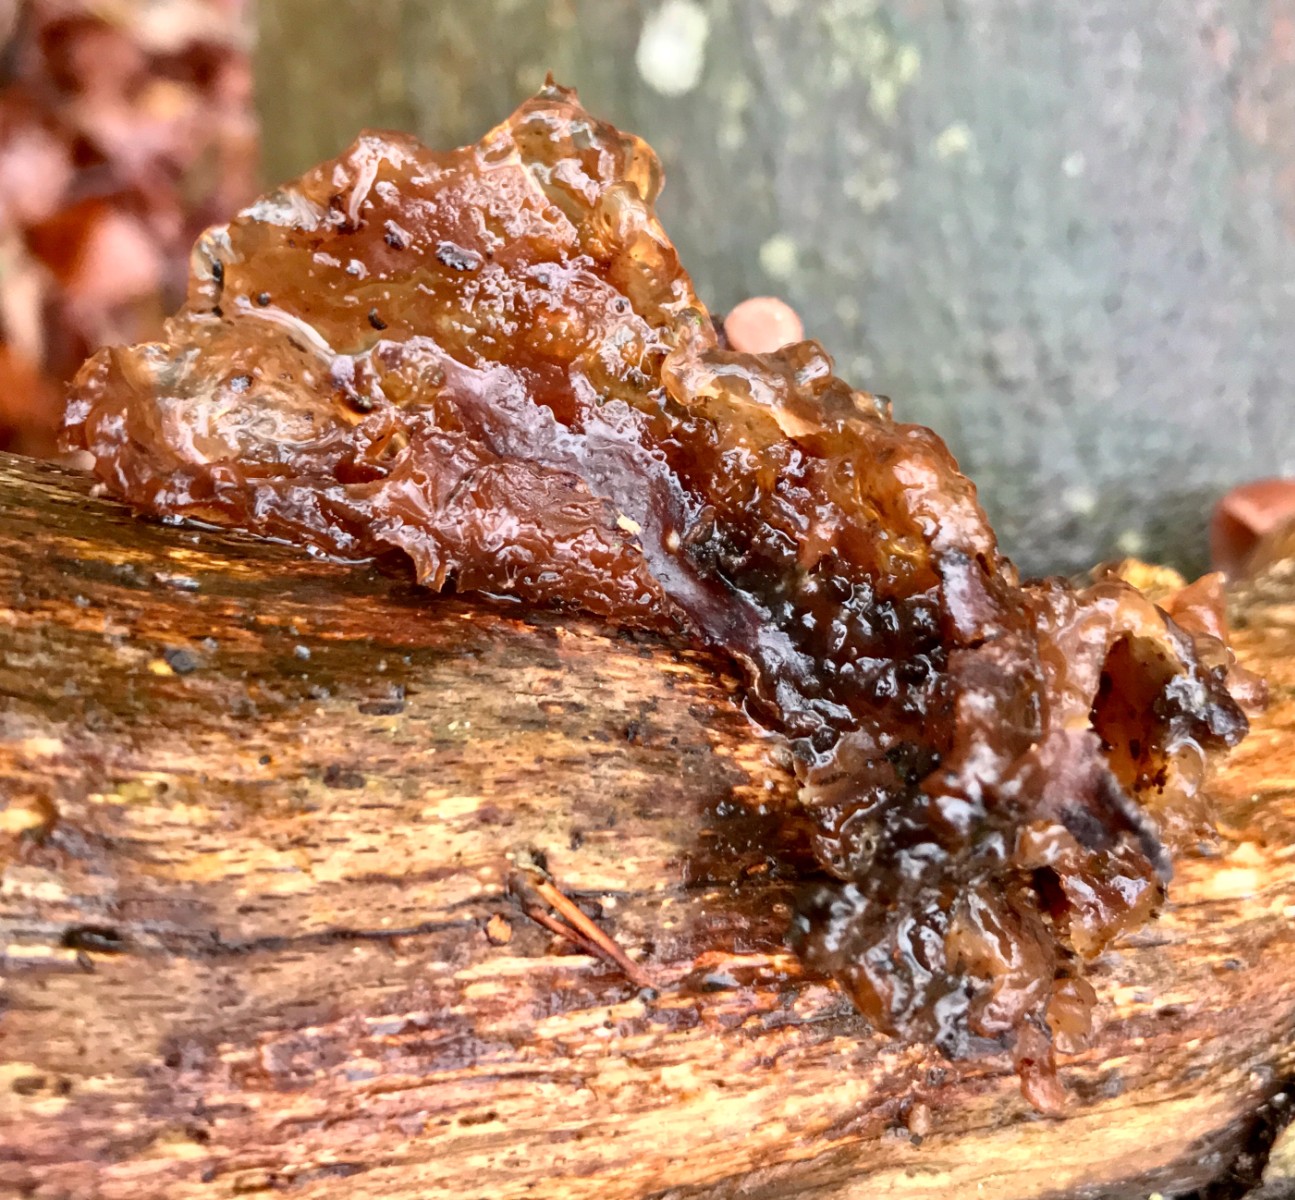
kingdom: Fungi
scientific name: Fungi
